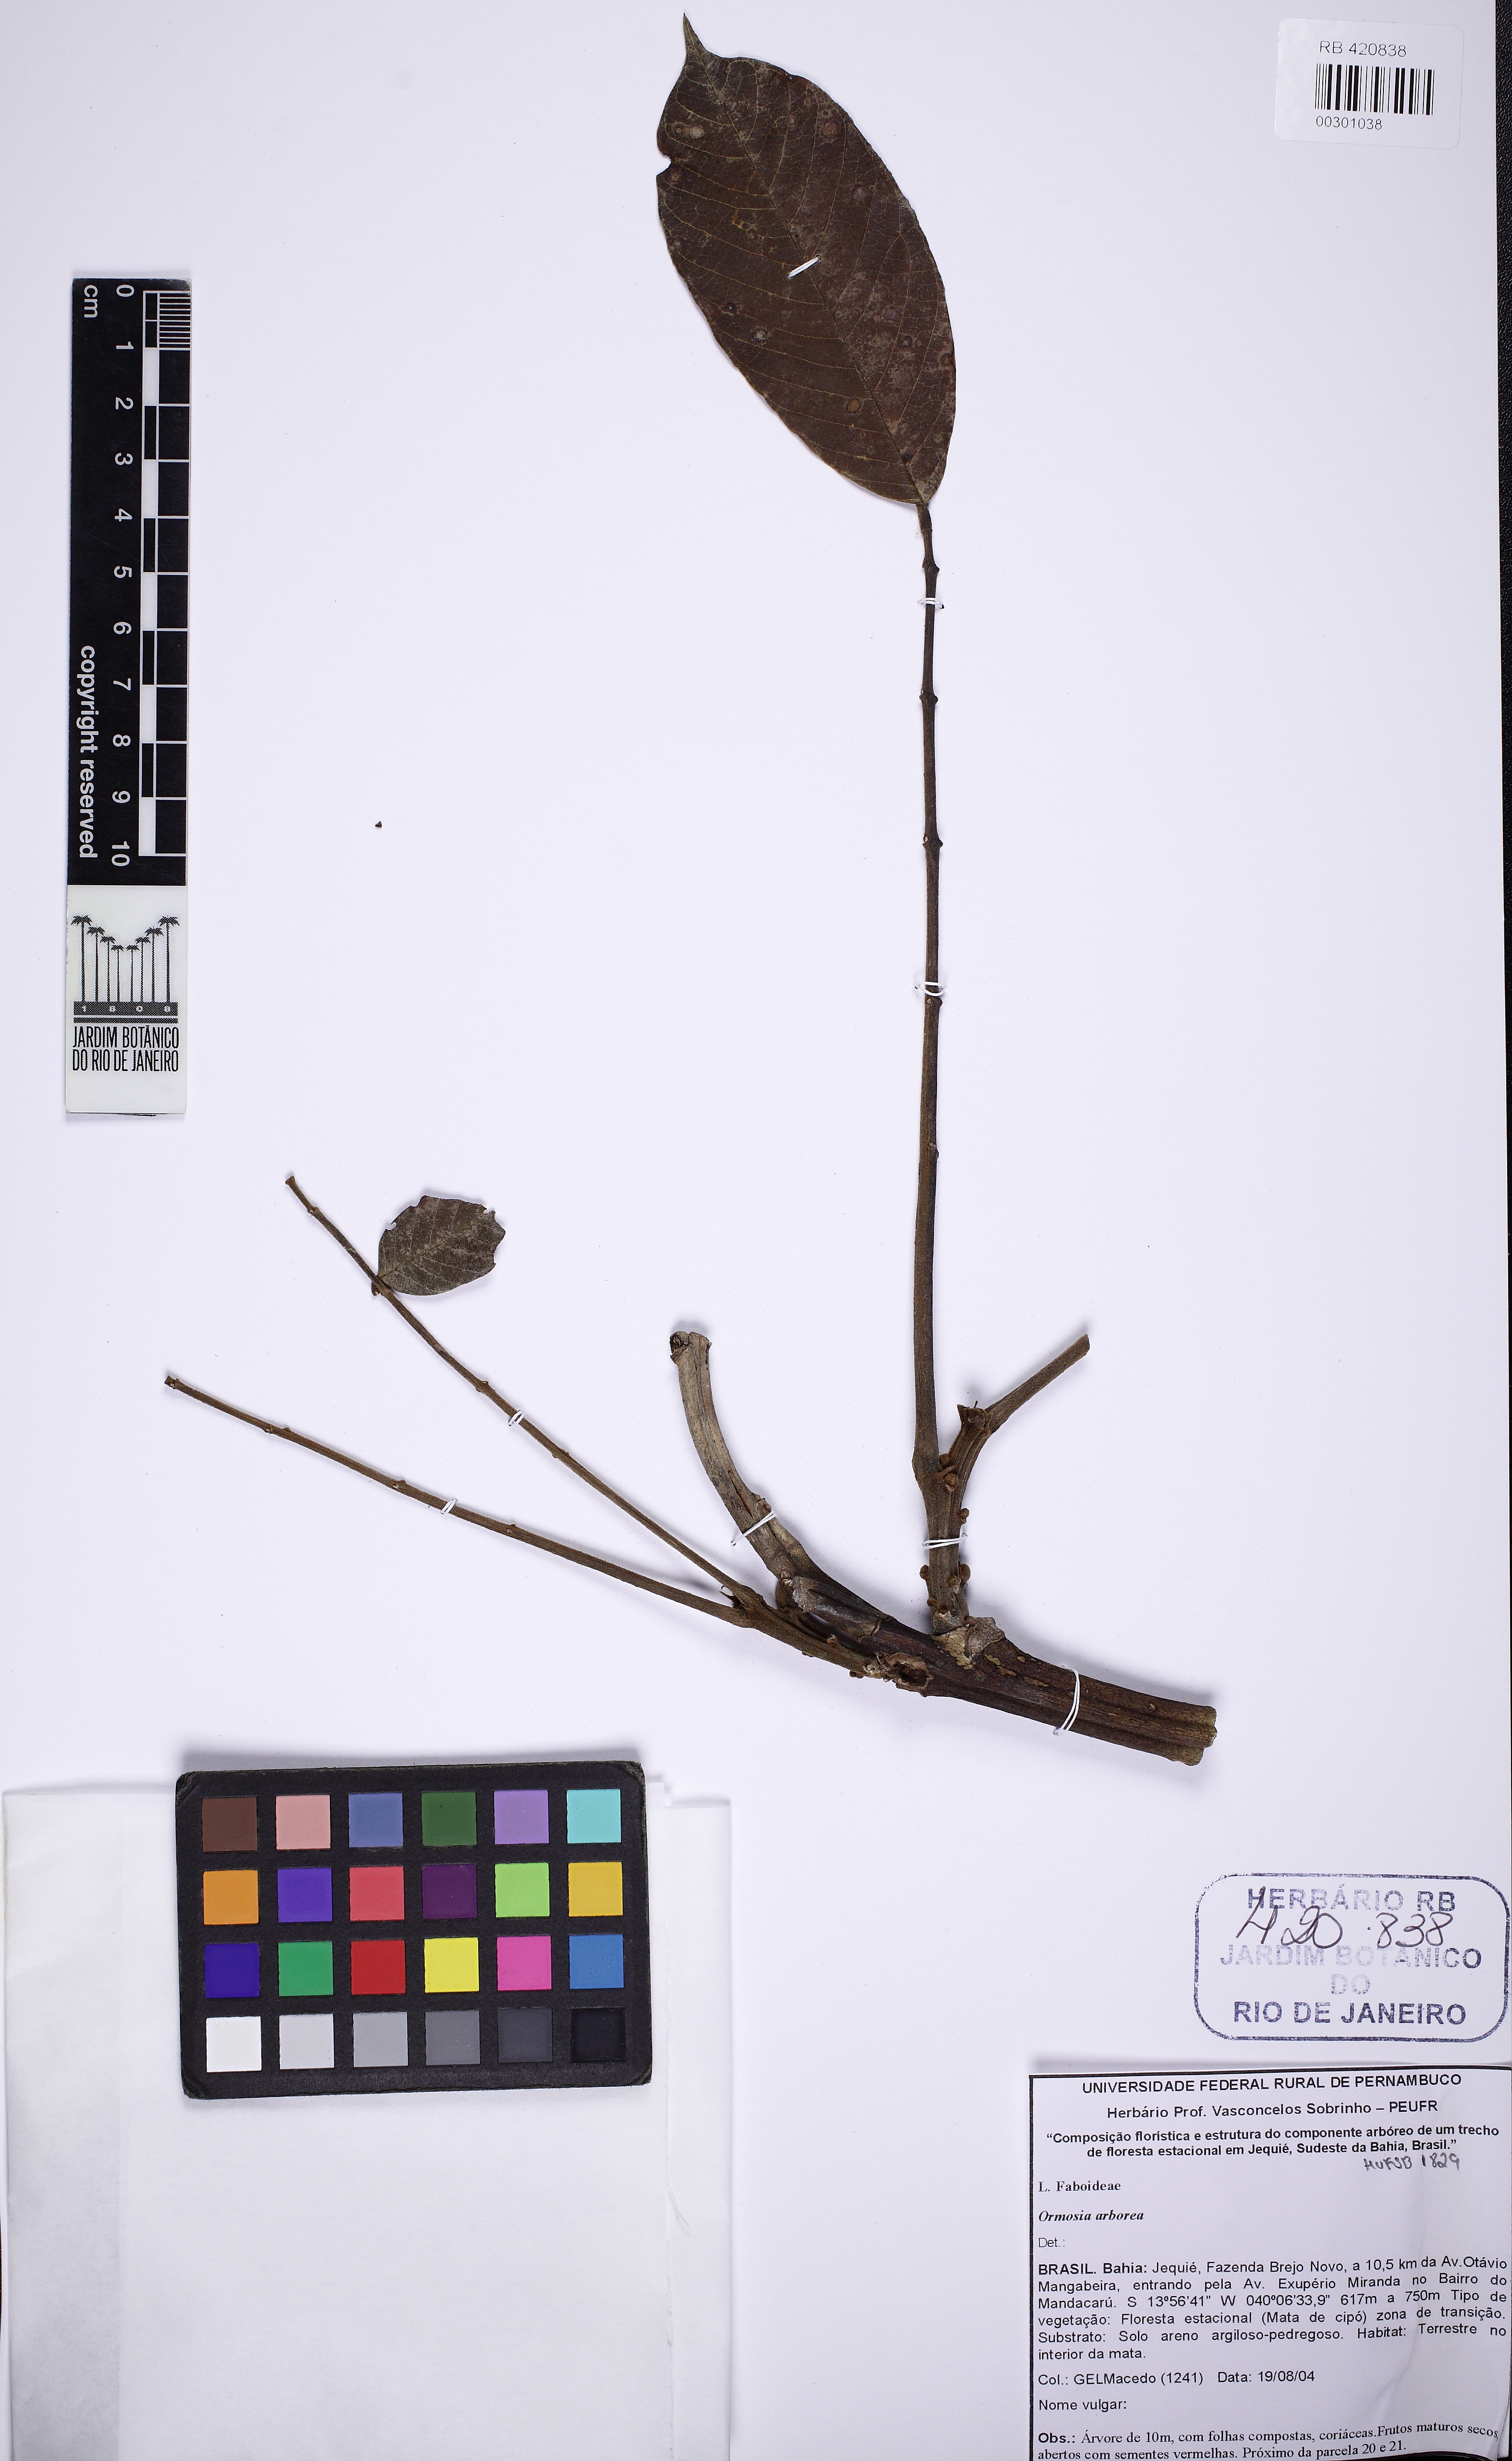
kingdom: Plantae
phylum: Tracheophyta
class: Magnoliopsida
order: Fabales
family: Fabaceae
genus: Ormosia
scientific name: Ormosia arborea
